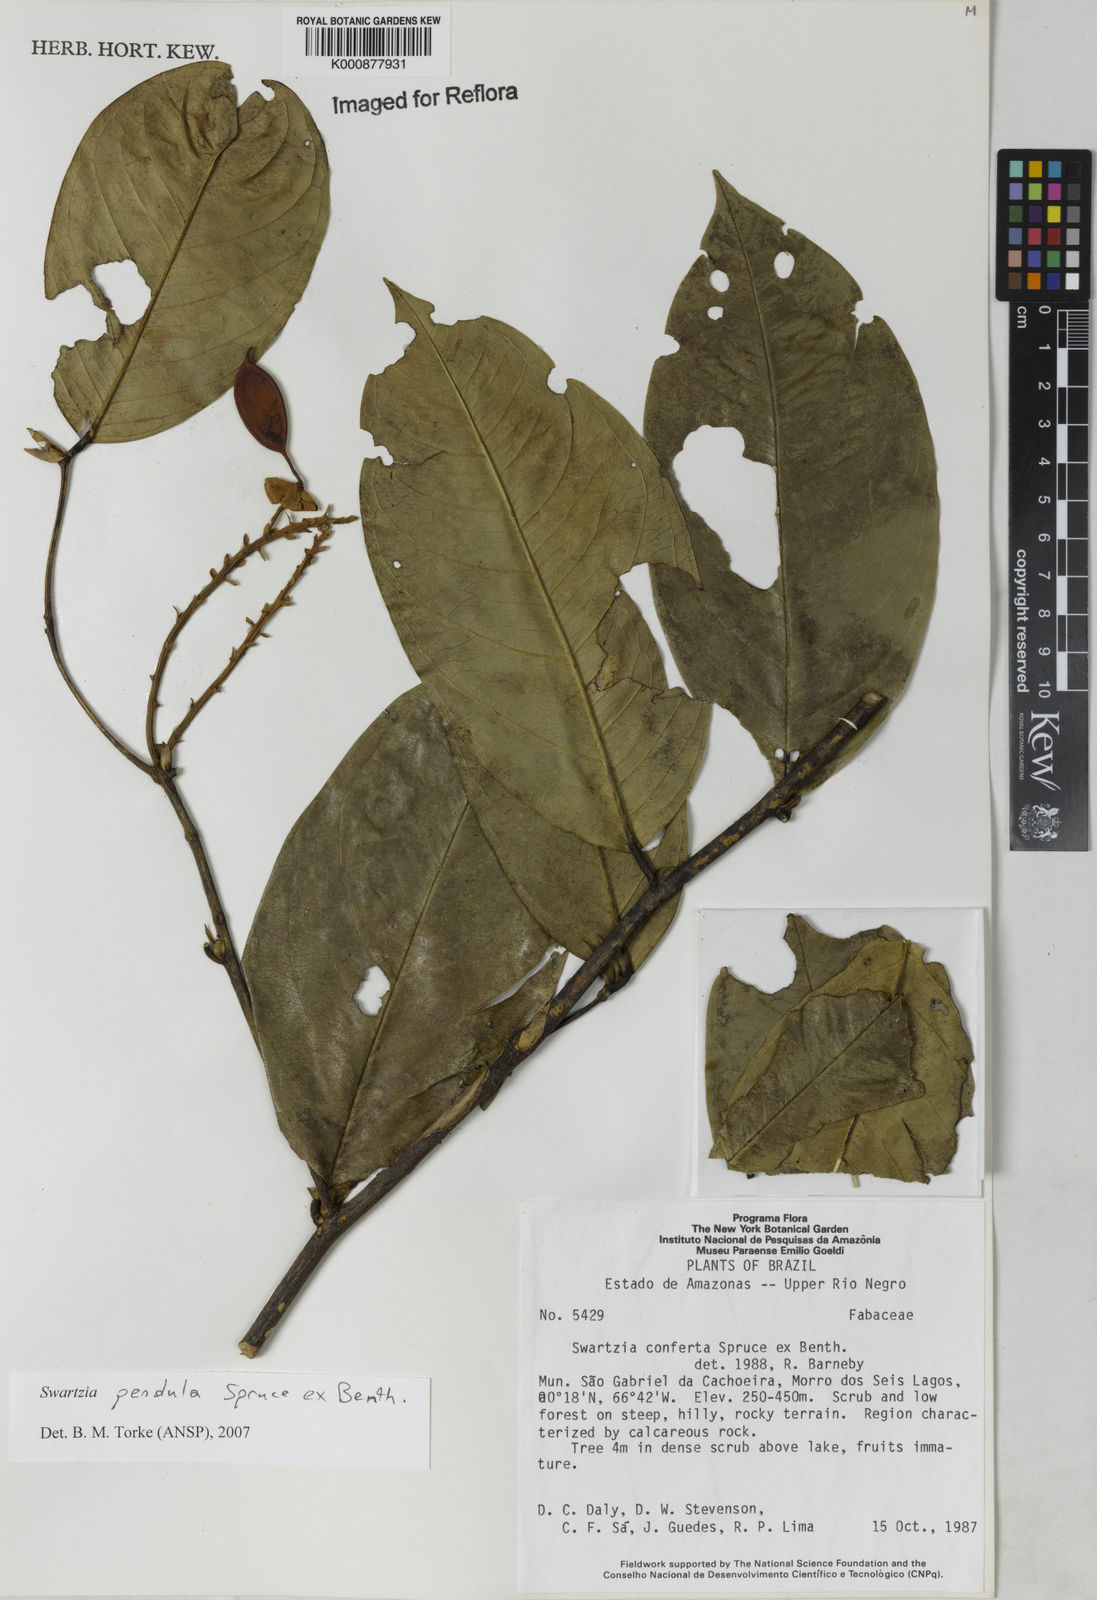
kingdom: Plantae
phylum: Tracheophyta
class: Magnoliopsida
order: Fabales
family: Fabaceae
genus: Swartzia
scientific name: Swartzia pendula
